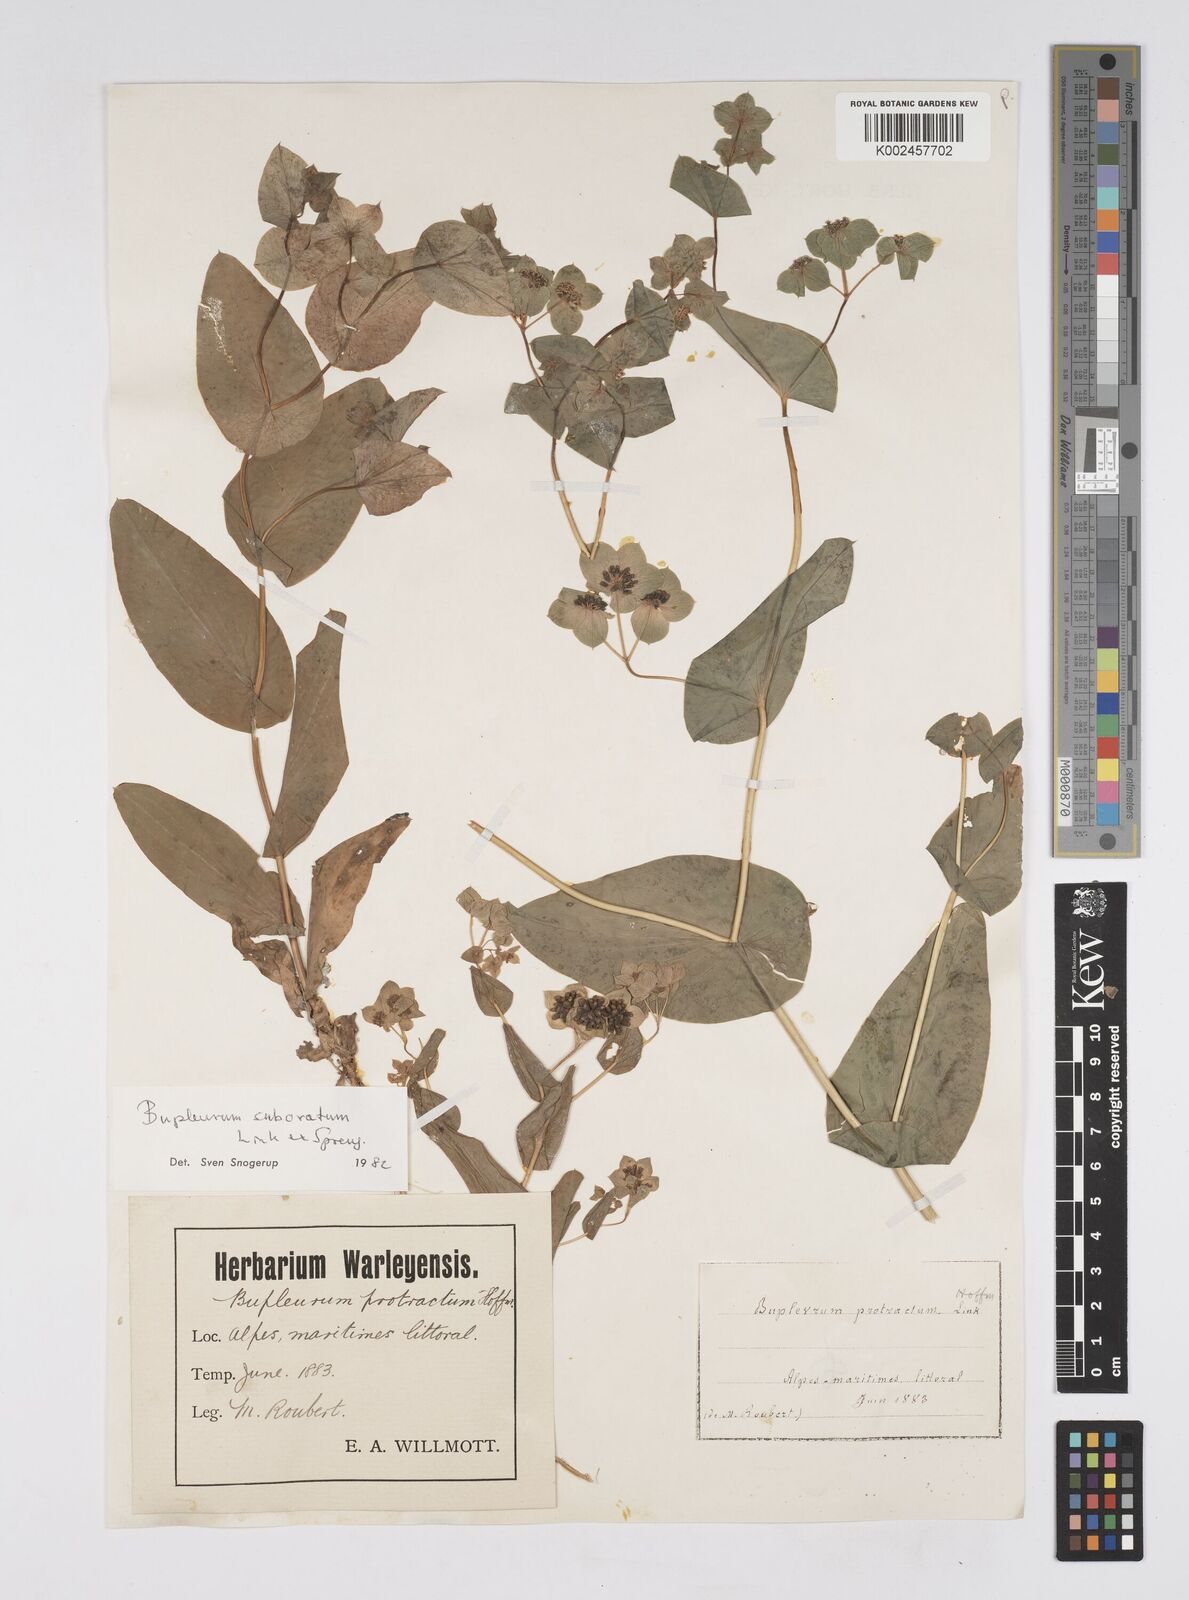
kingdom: Plantae
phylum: Tracheophyta
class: Magnoliopsida
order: Apiales
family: Apiaceae
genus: Bupleurum
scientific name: Bupleurum lancifolium
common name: False thorow-wax
